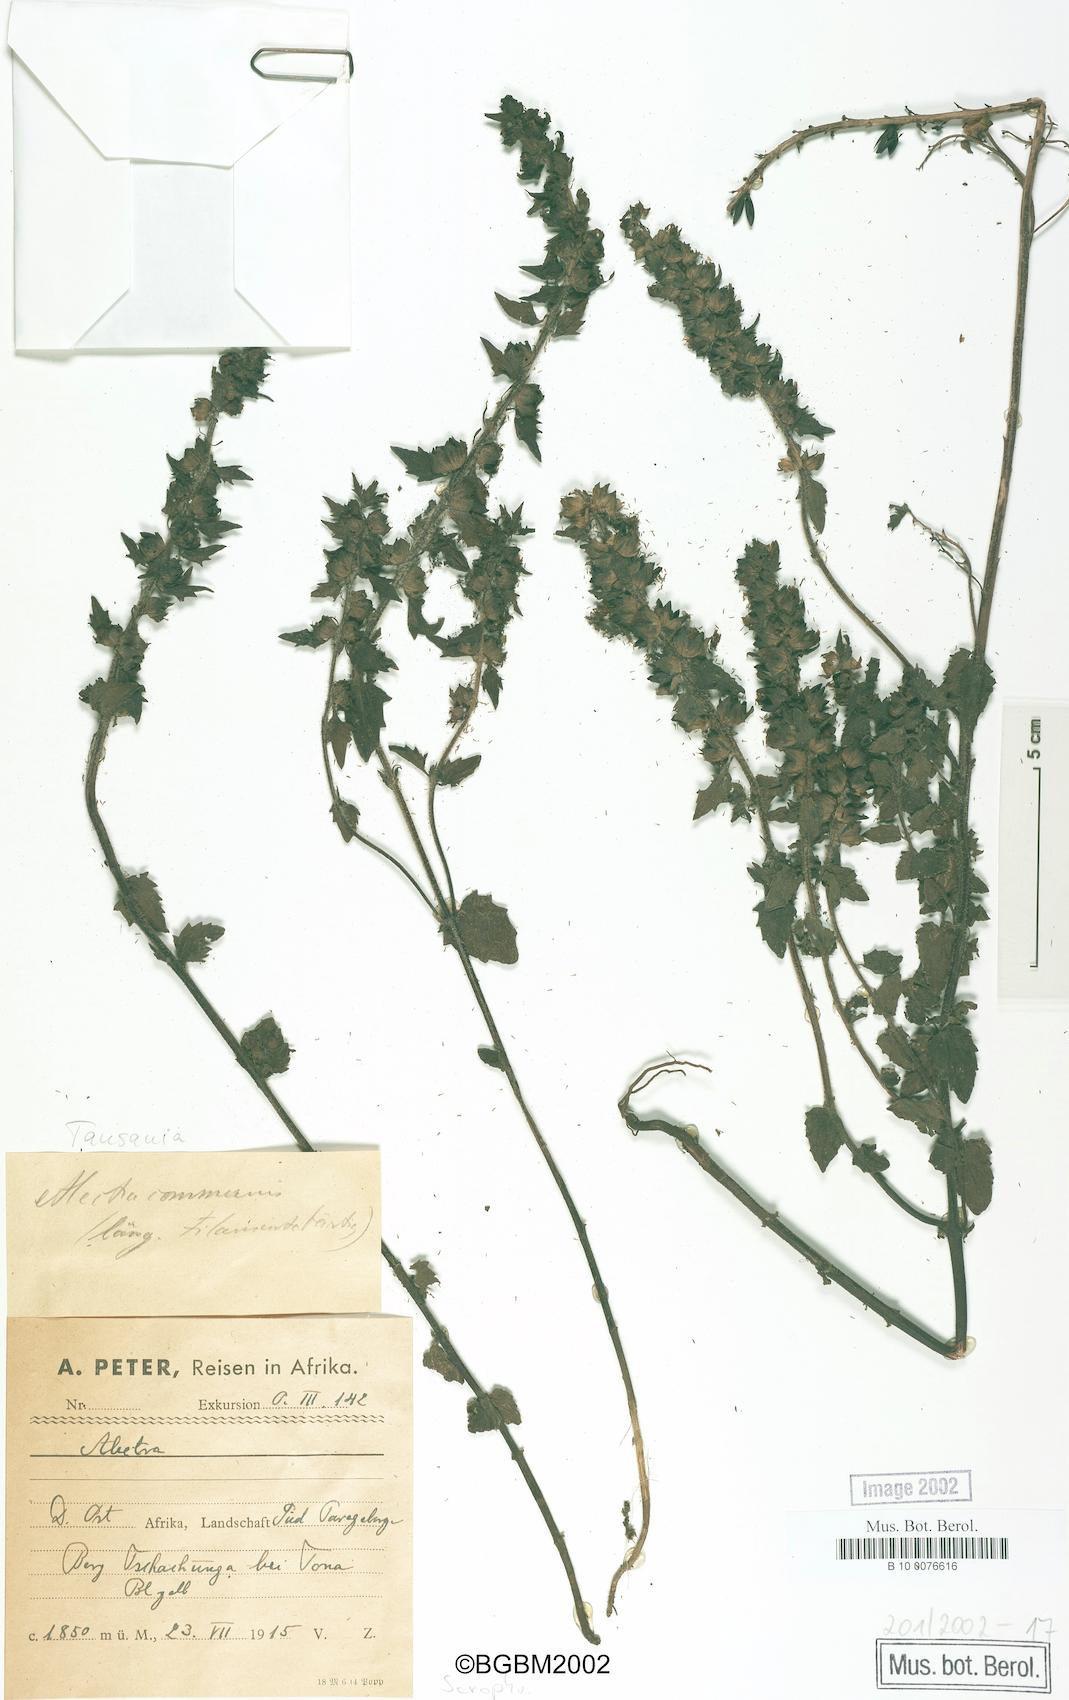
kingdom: Plantae
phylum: Tracheophyta
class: Magnoliopsida
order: Lamiales
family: Orobanchaceae
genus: Alectra
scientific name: Alectra sessiliflora
